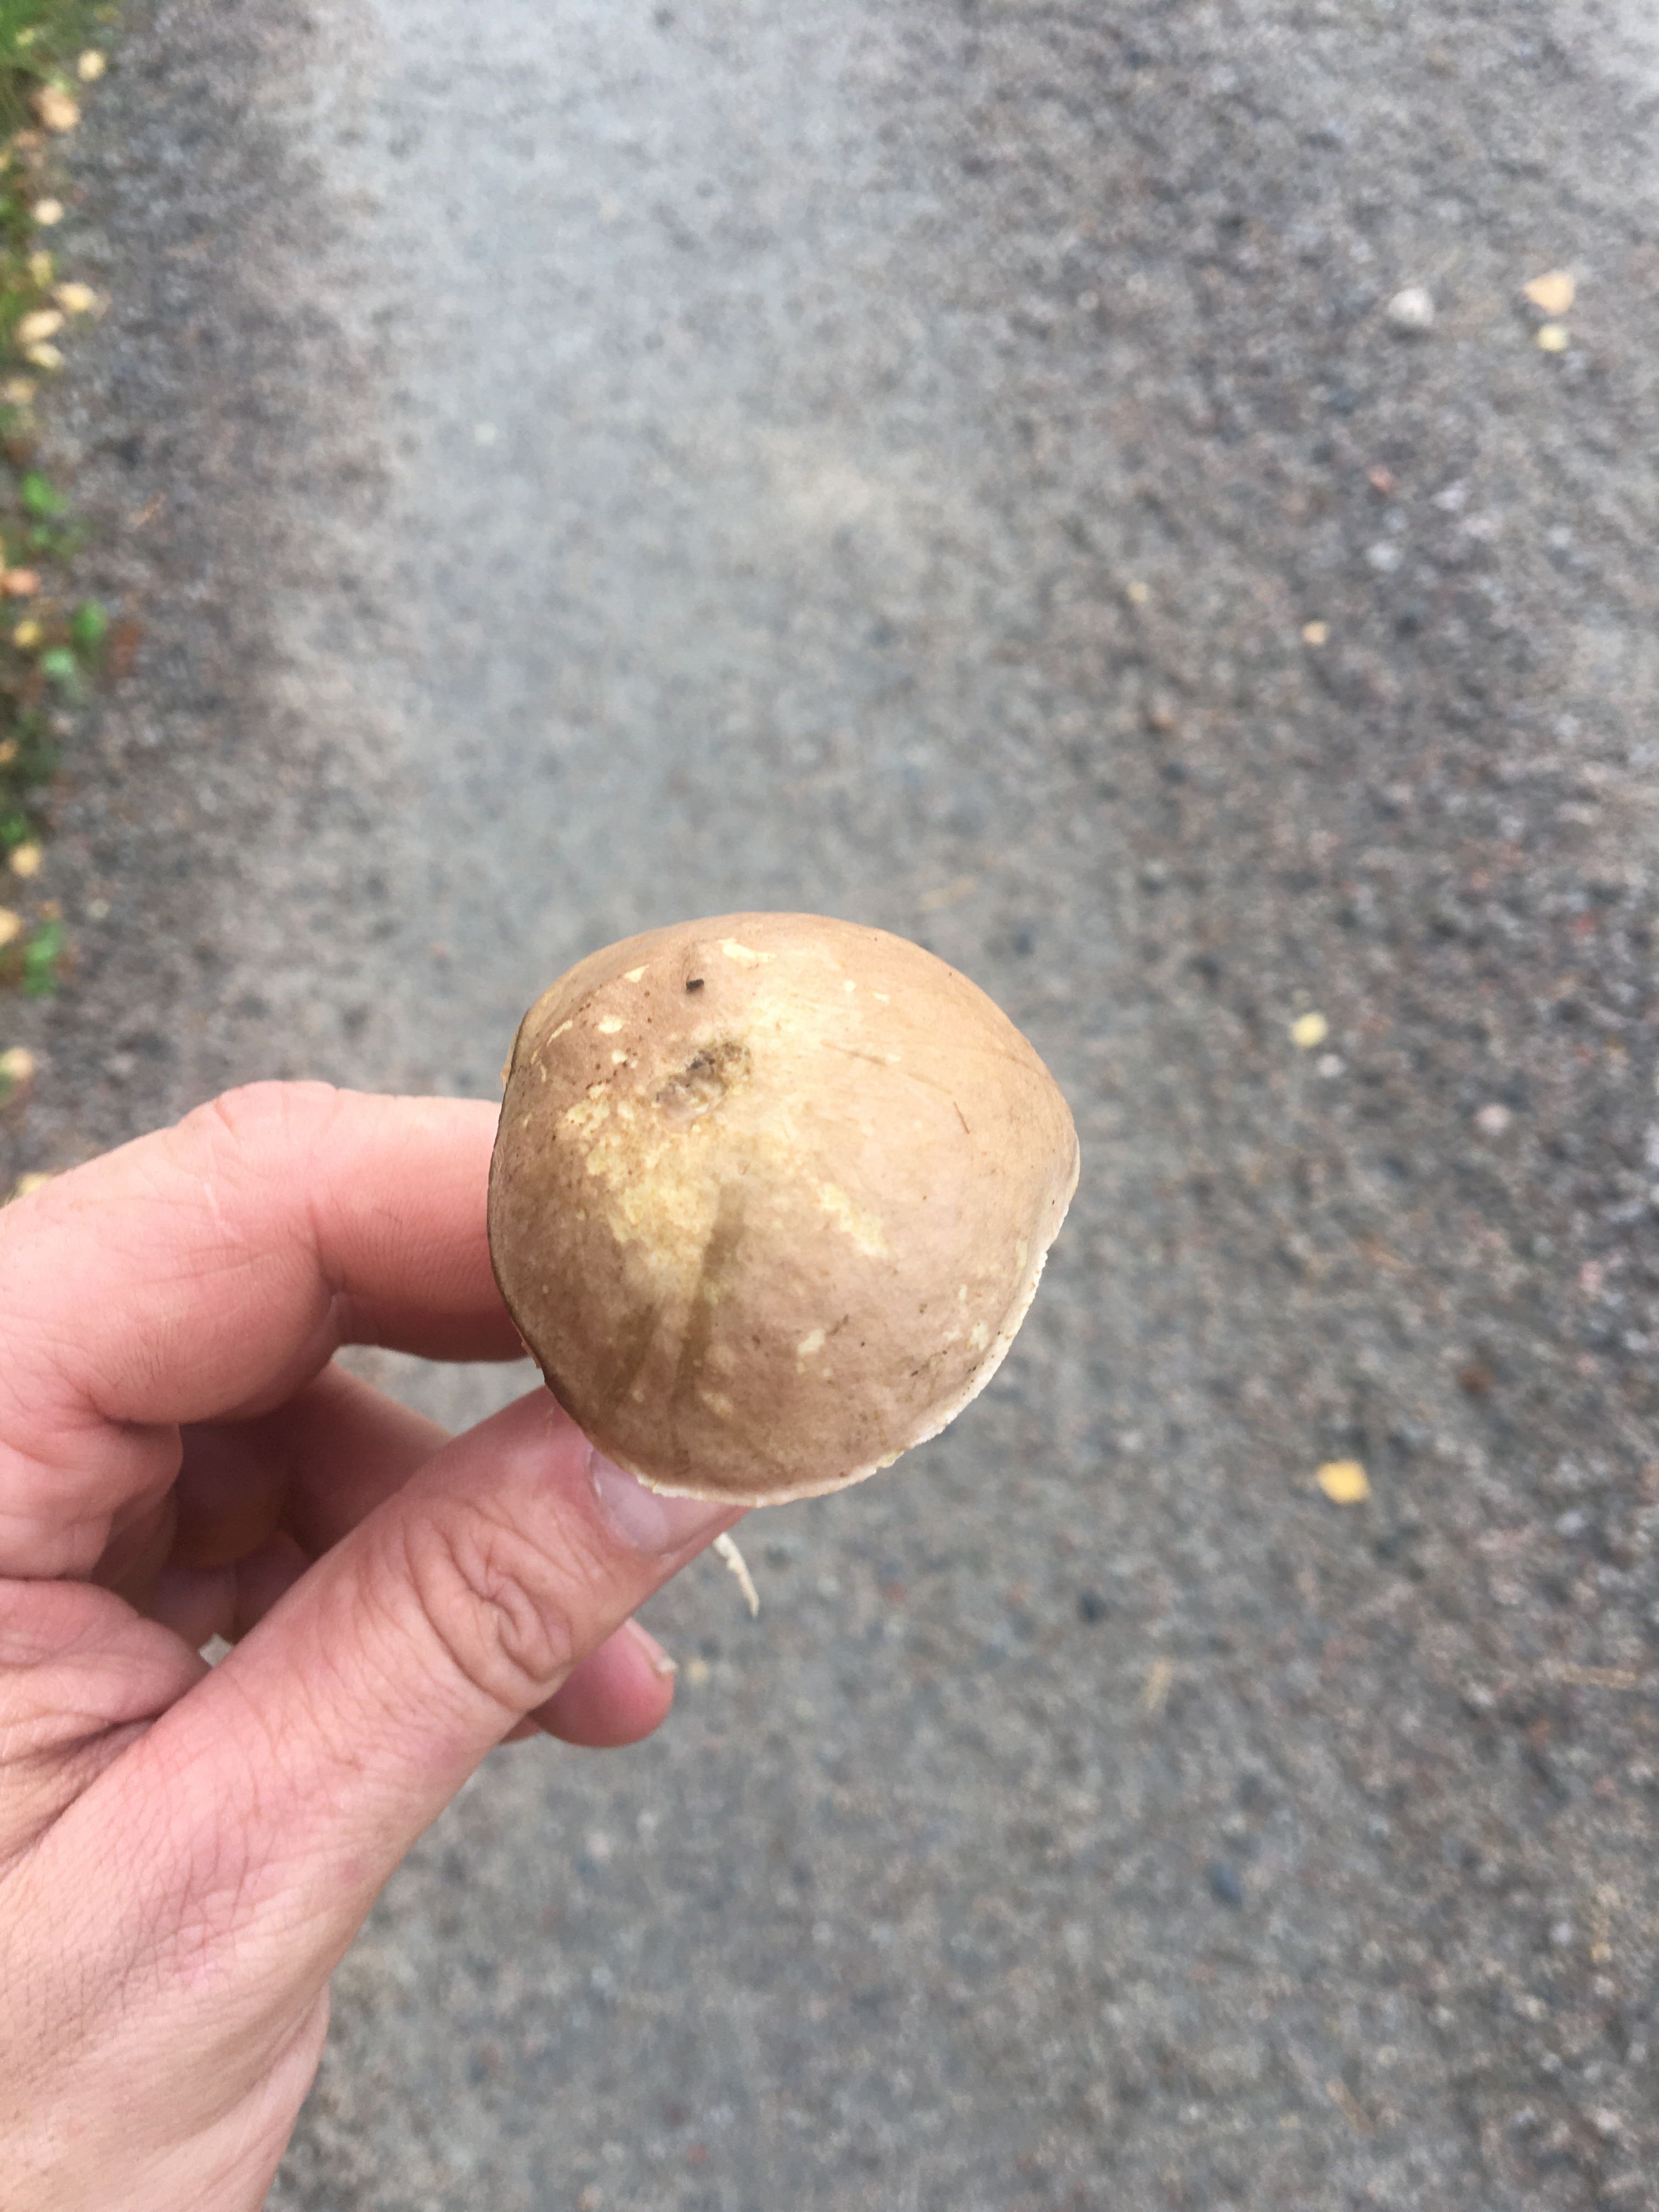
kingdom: Fungi
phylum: Basidiomycota
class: Agaricomycetes
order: Boletales
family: Boletaceae
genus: Leccinum
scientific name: Leccinum cyaneobasileucum
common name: almindelig skælrørhat
